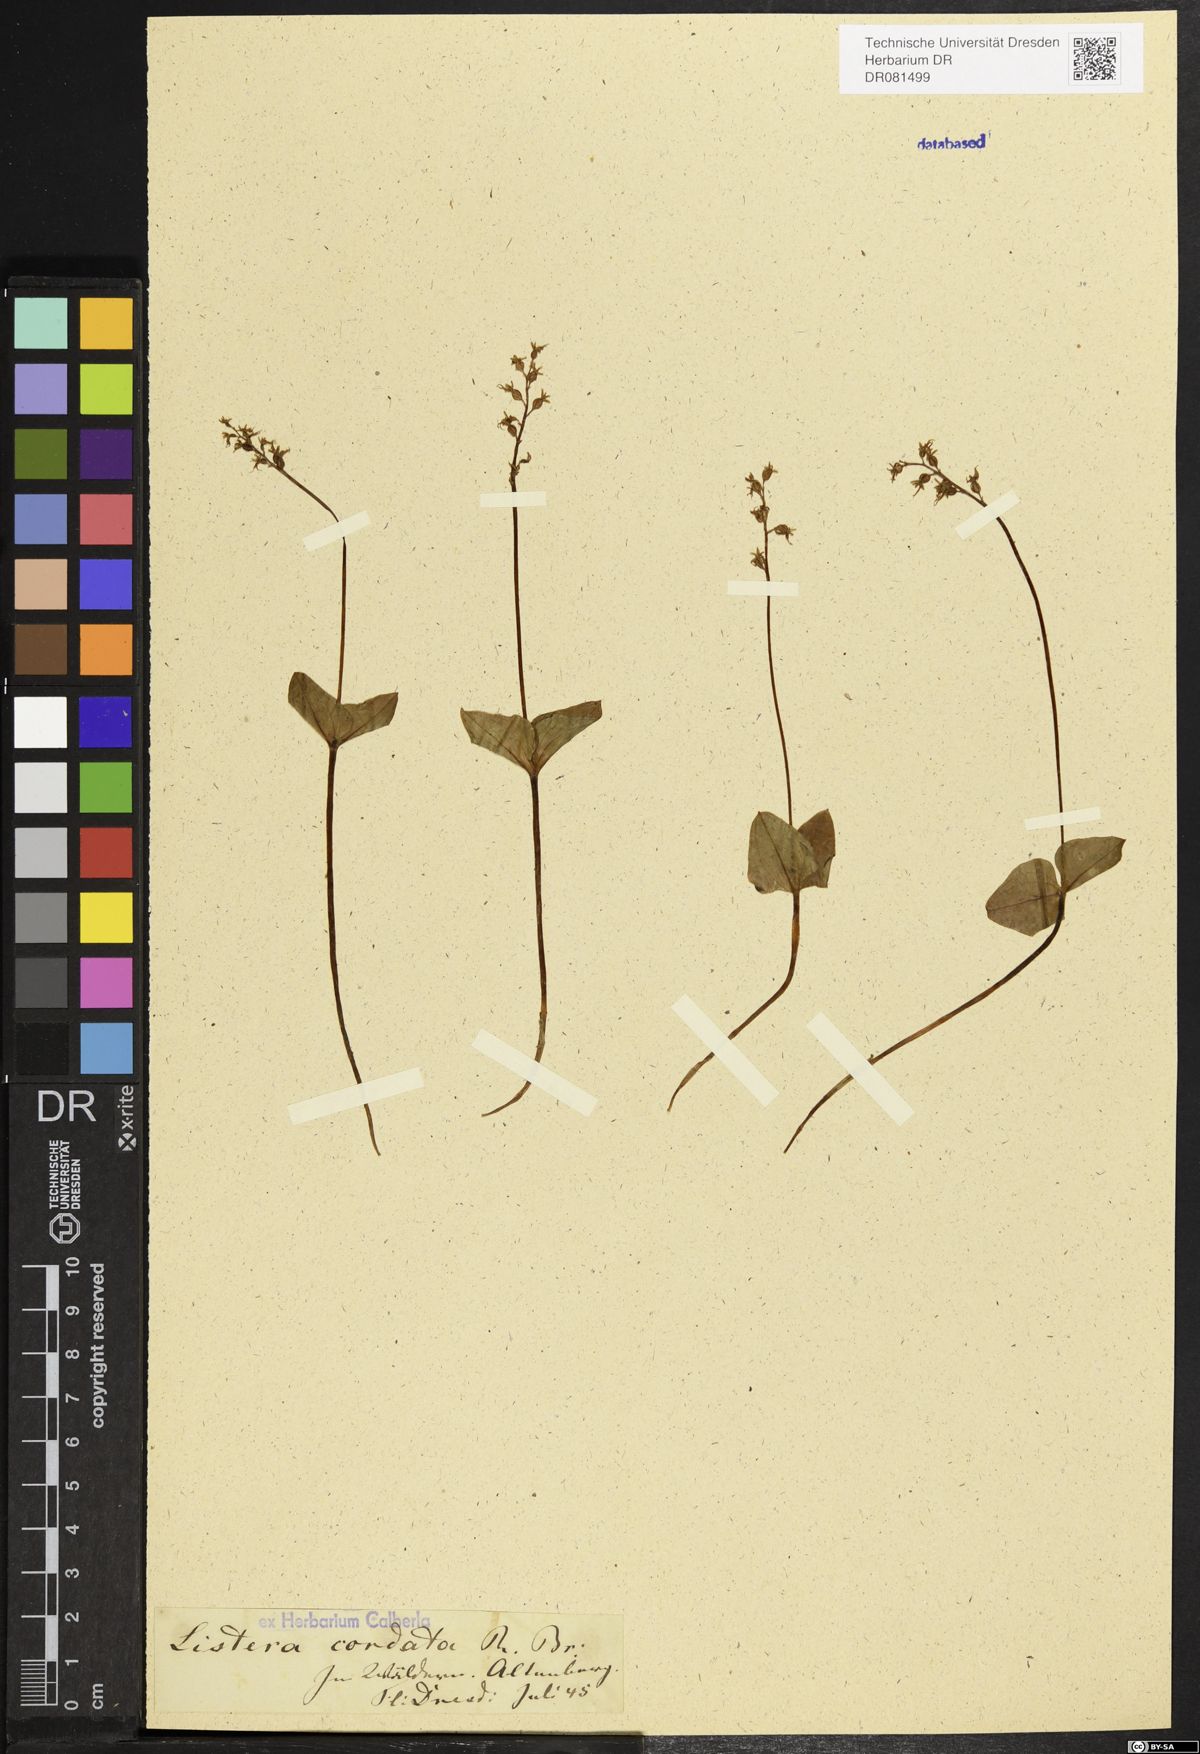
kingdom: Plantae
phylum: Tracheophyta
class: Liliopsida
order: Asparagales
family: Orchidaceae
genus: Neottia
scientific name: Neottia cordata
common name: Lesser twayblade
